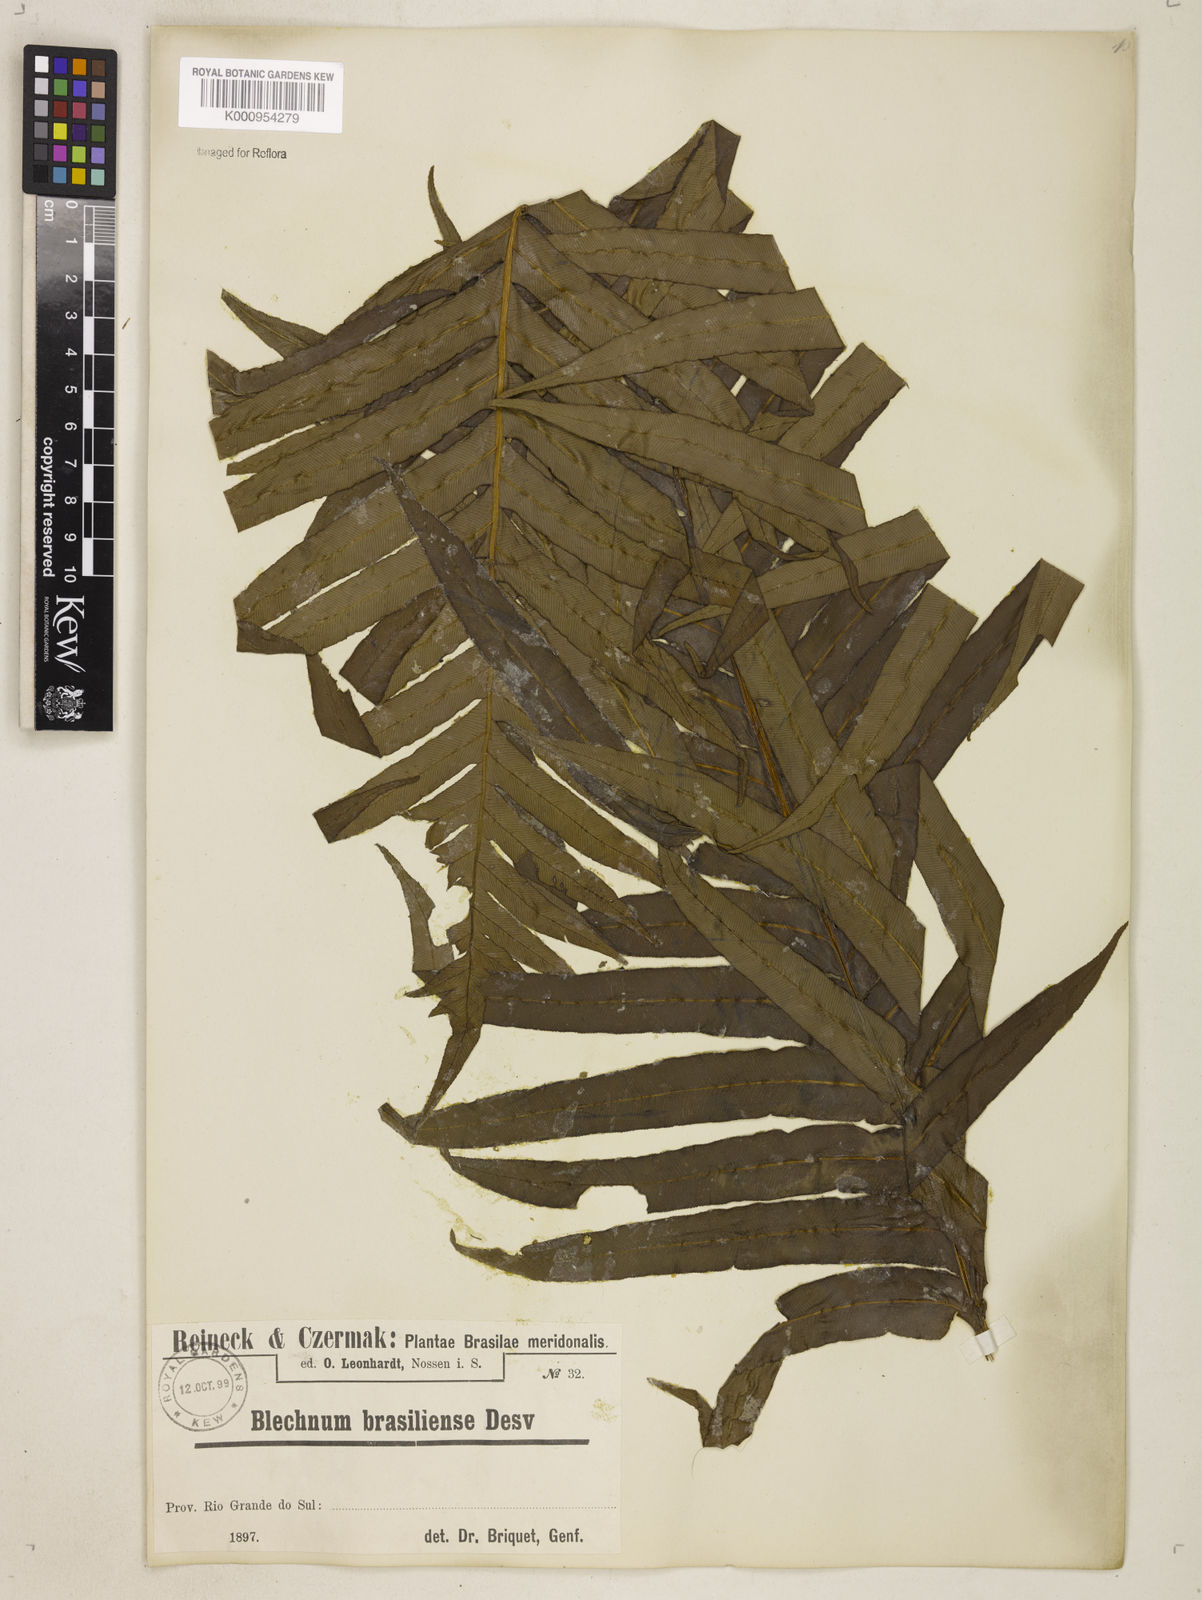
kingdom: Plantae
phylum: Tracheophyta
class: Polypodiopsida
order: Polypodiales
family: Blechnaceae
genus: Neoblechnum
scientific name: Neoblechnum brasiliense
